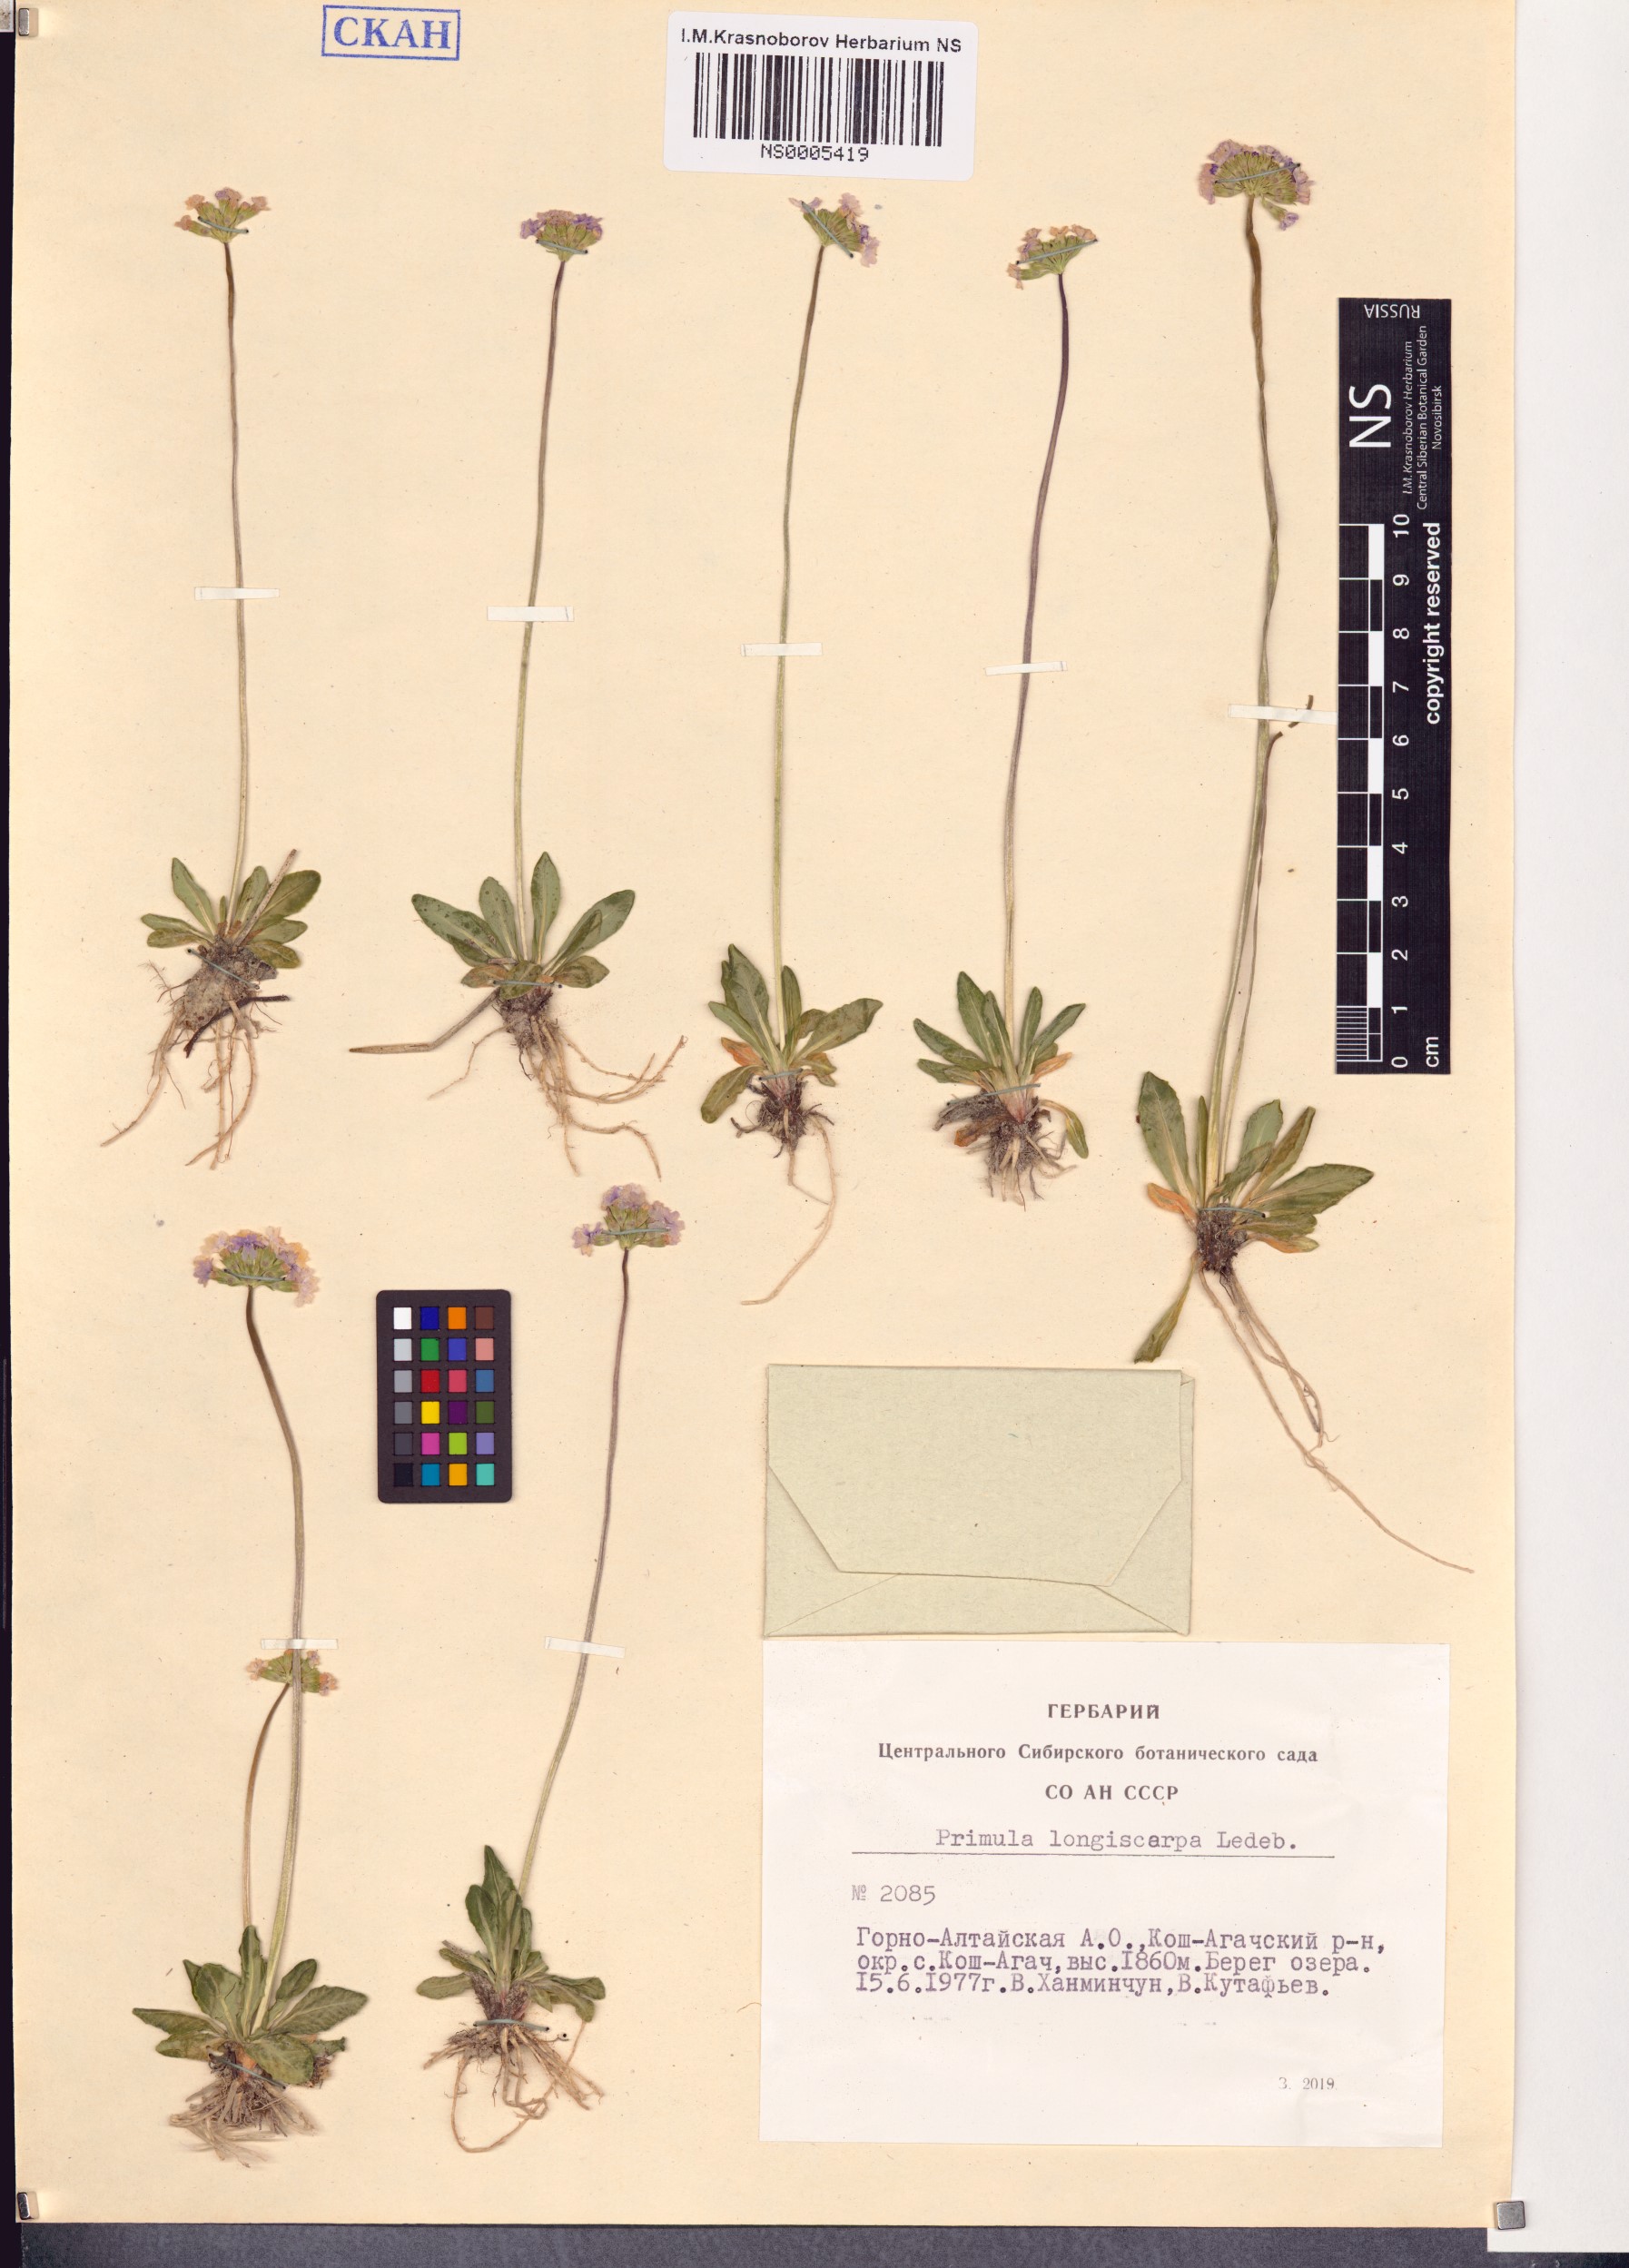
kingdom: Plantae
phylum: Tracheophyta
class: Magnoliopsida
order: Ericales
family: Primulaceae
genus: Primula
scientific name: Primula longiscapa
